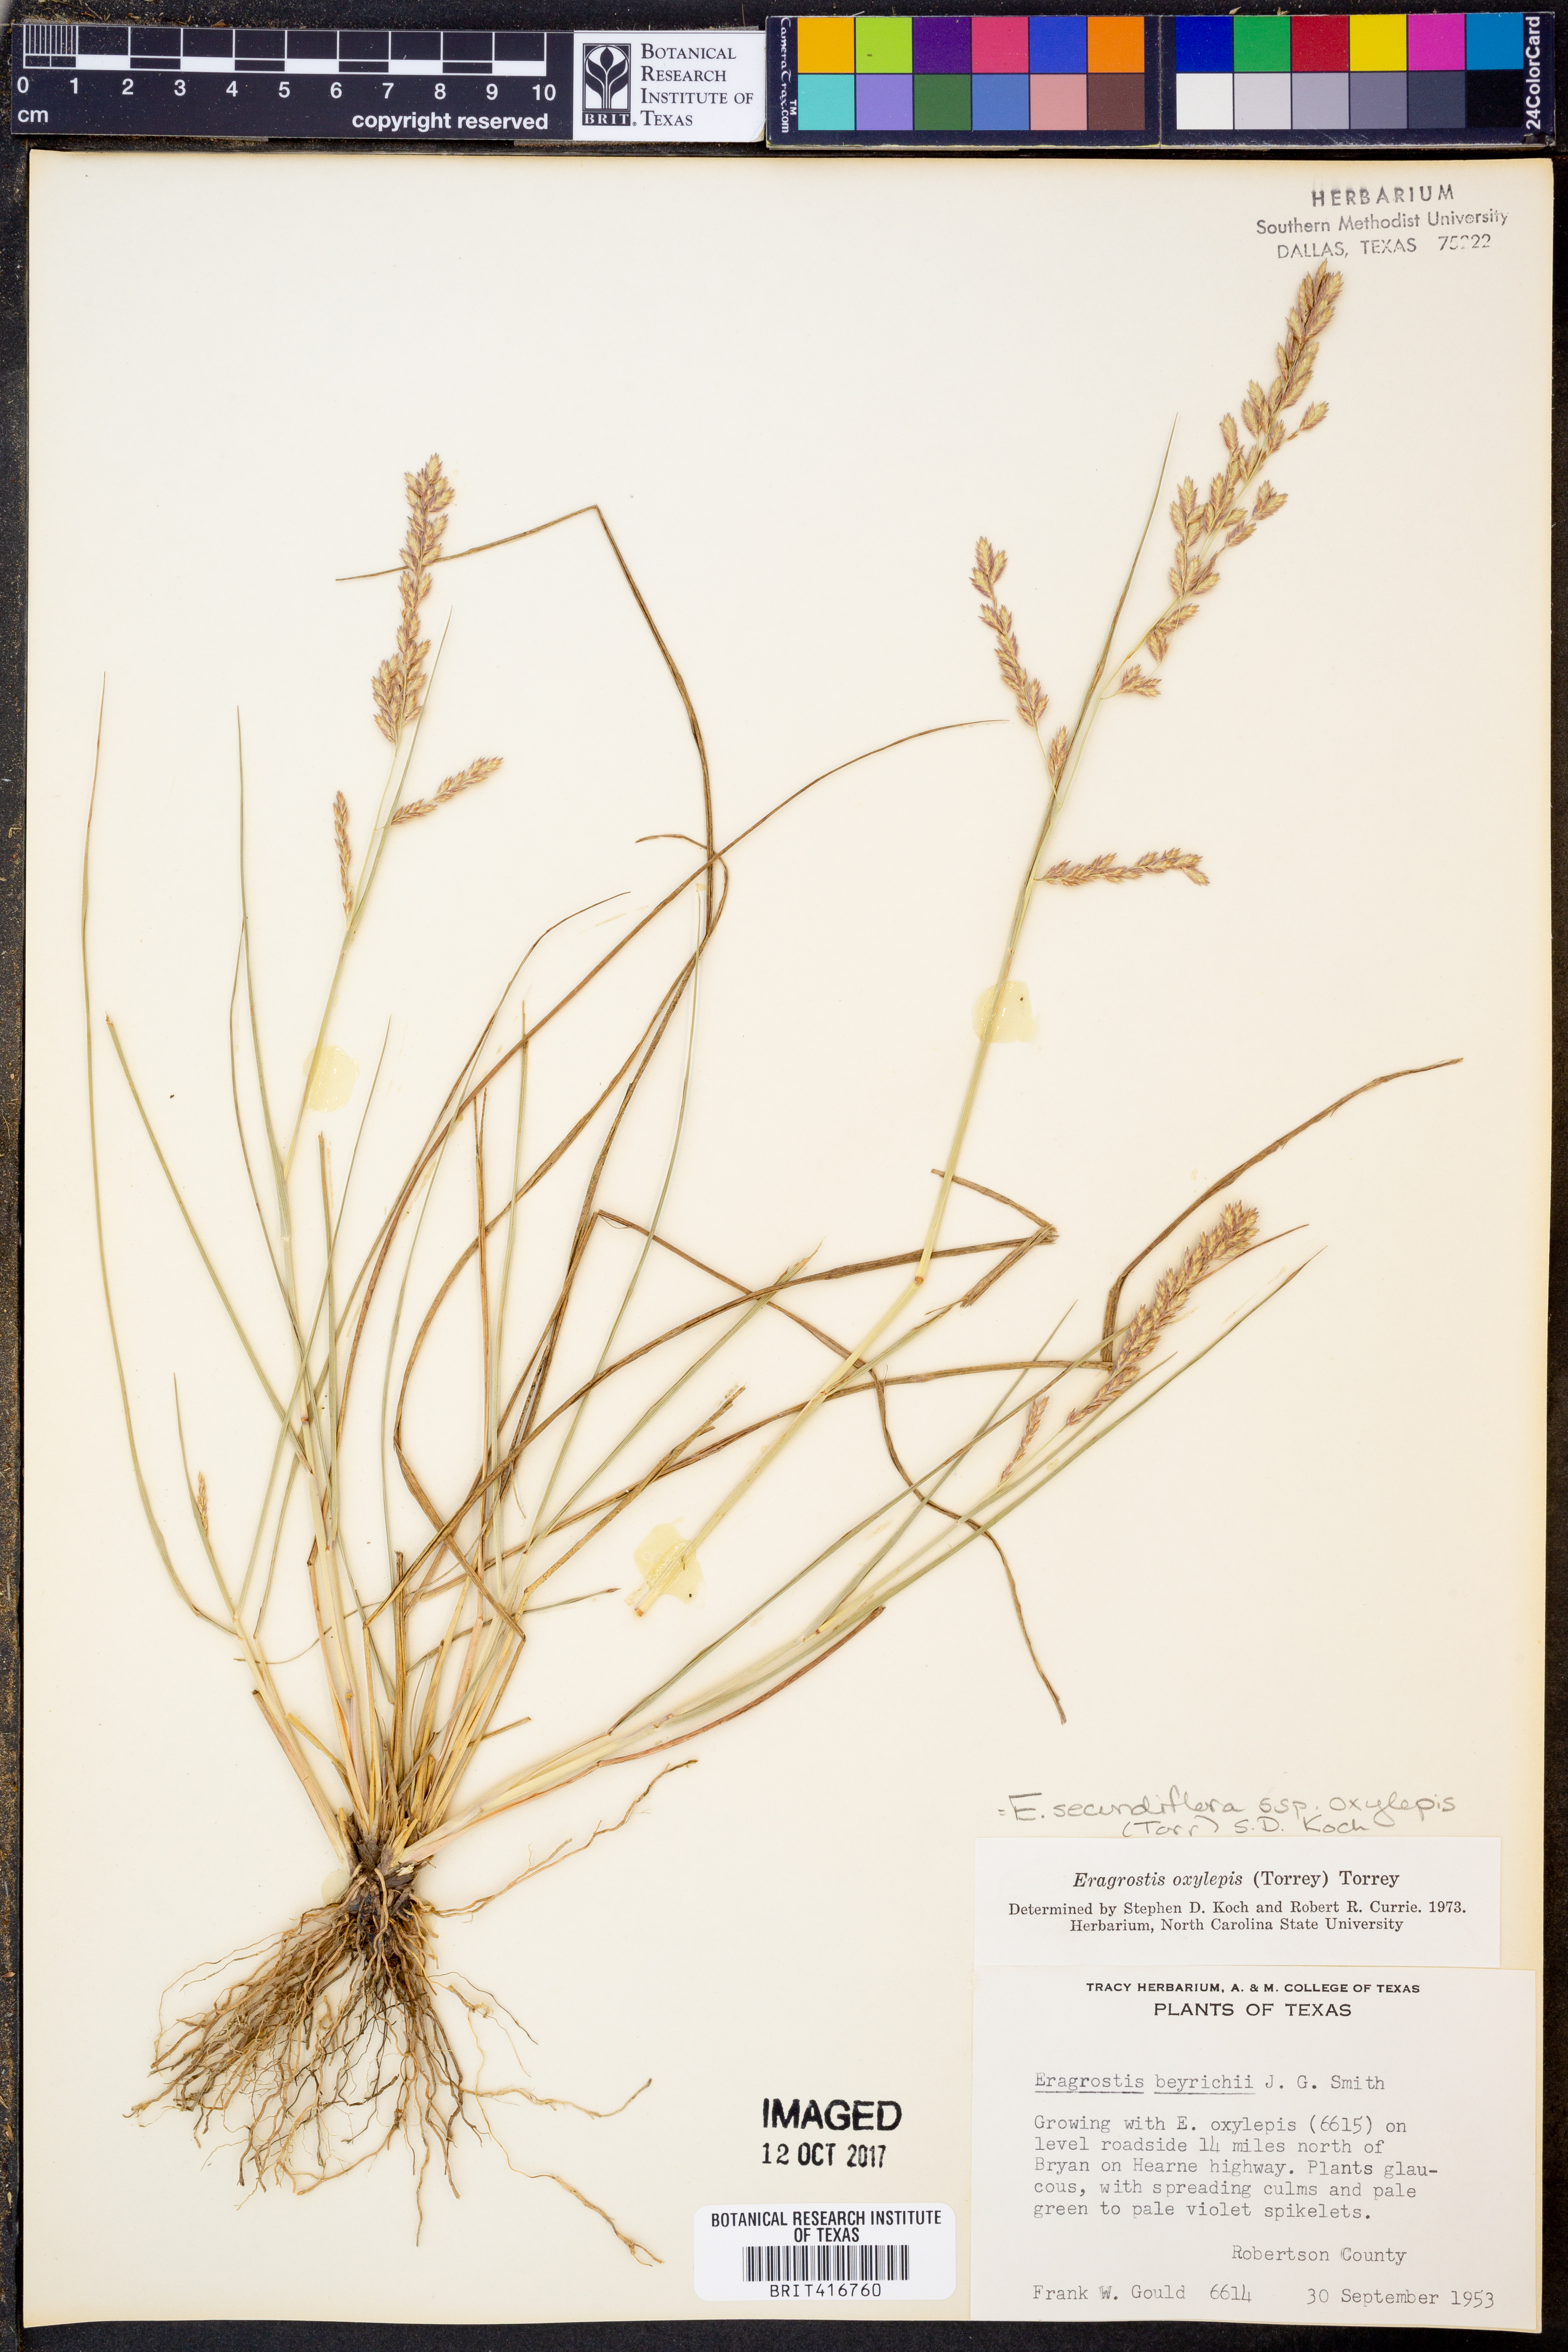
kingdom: Plantae
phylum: Tracheophyta
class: Liliopsida
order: Poales
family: Poaceae
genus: Eragrostis
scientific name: Eragrostis secundiflora
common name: Red love grass
